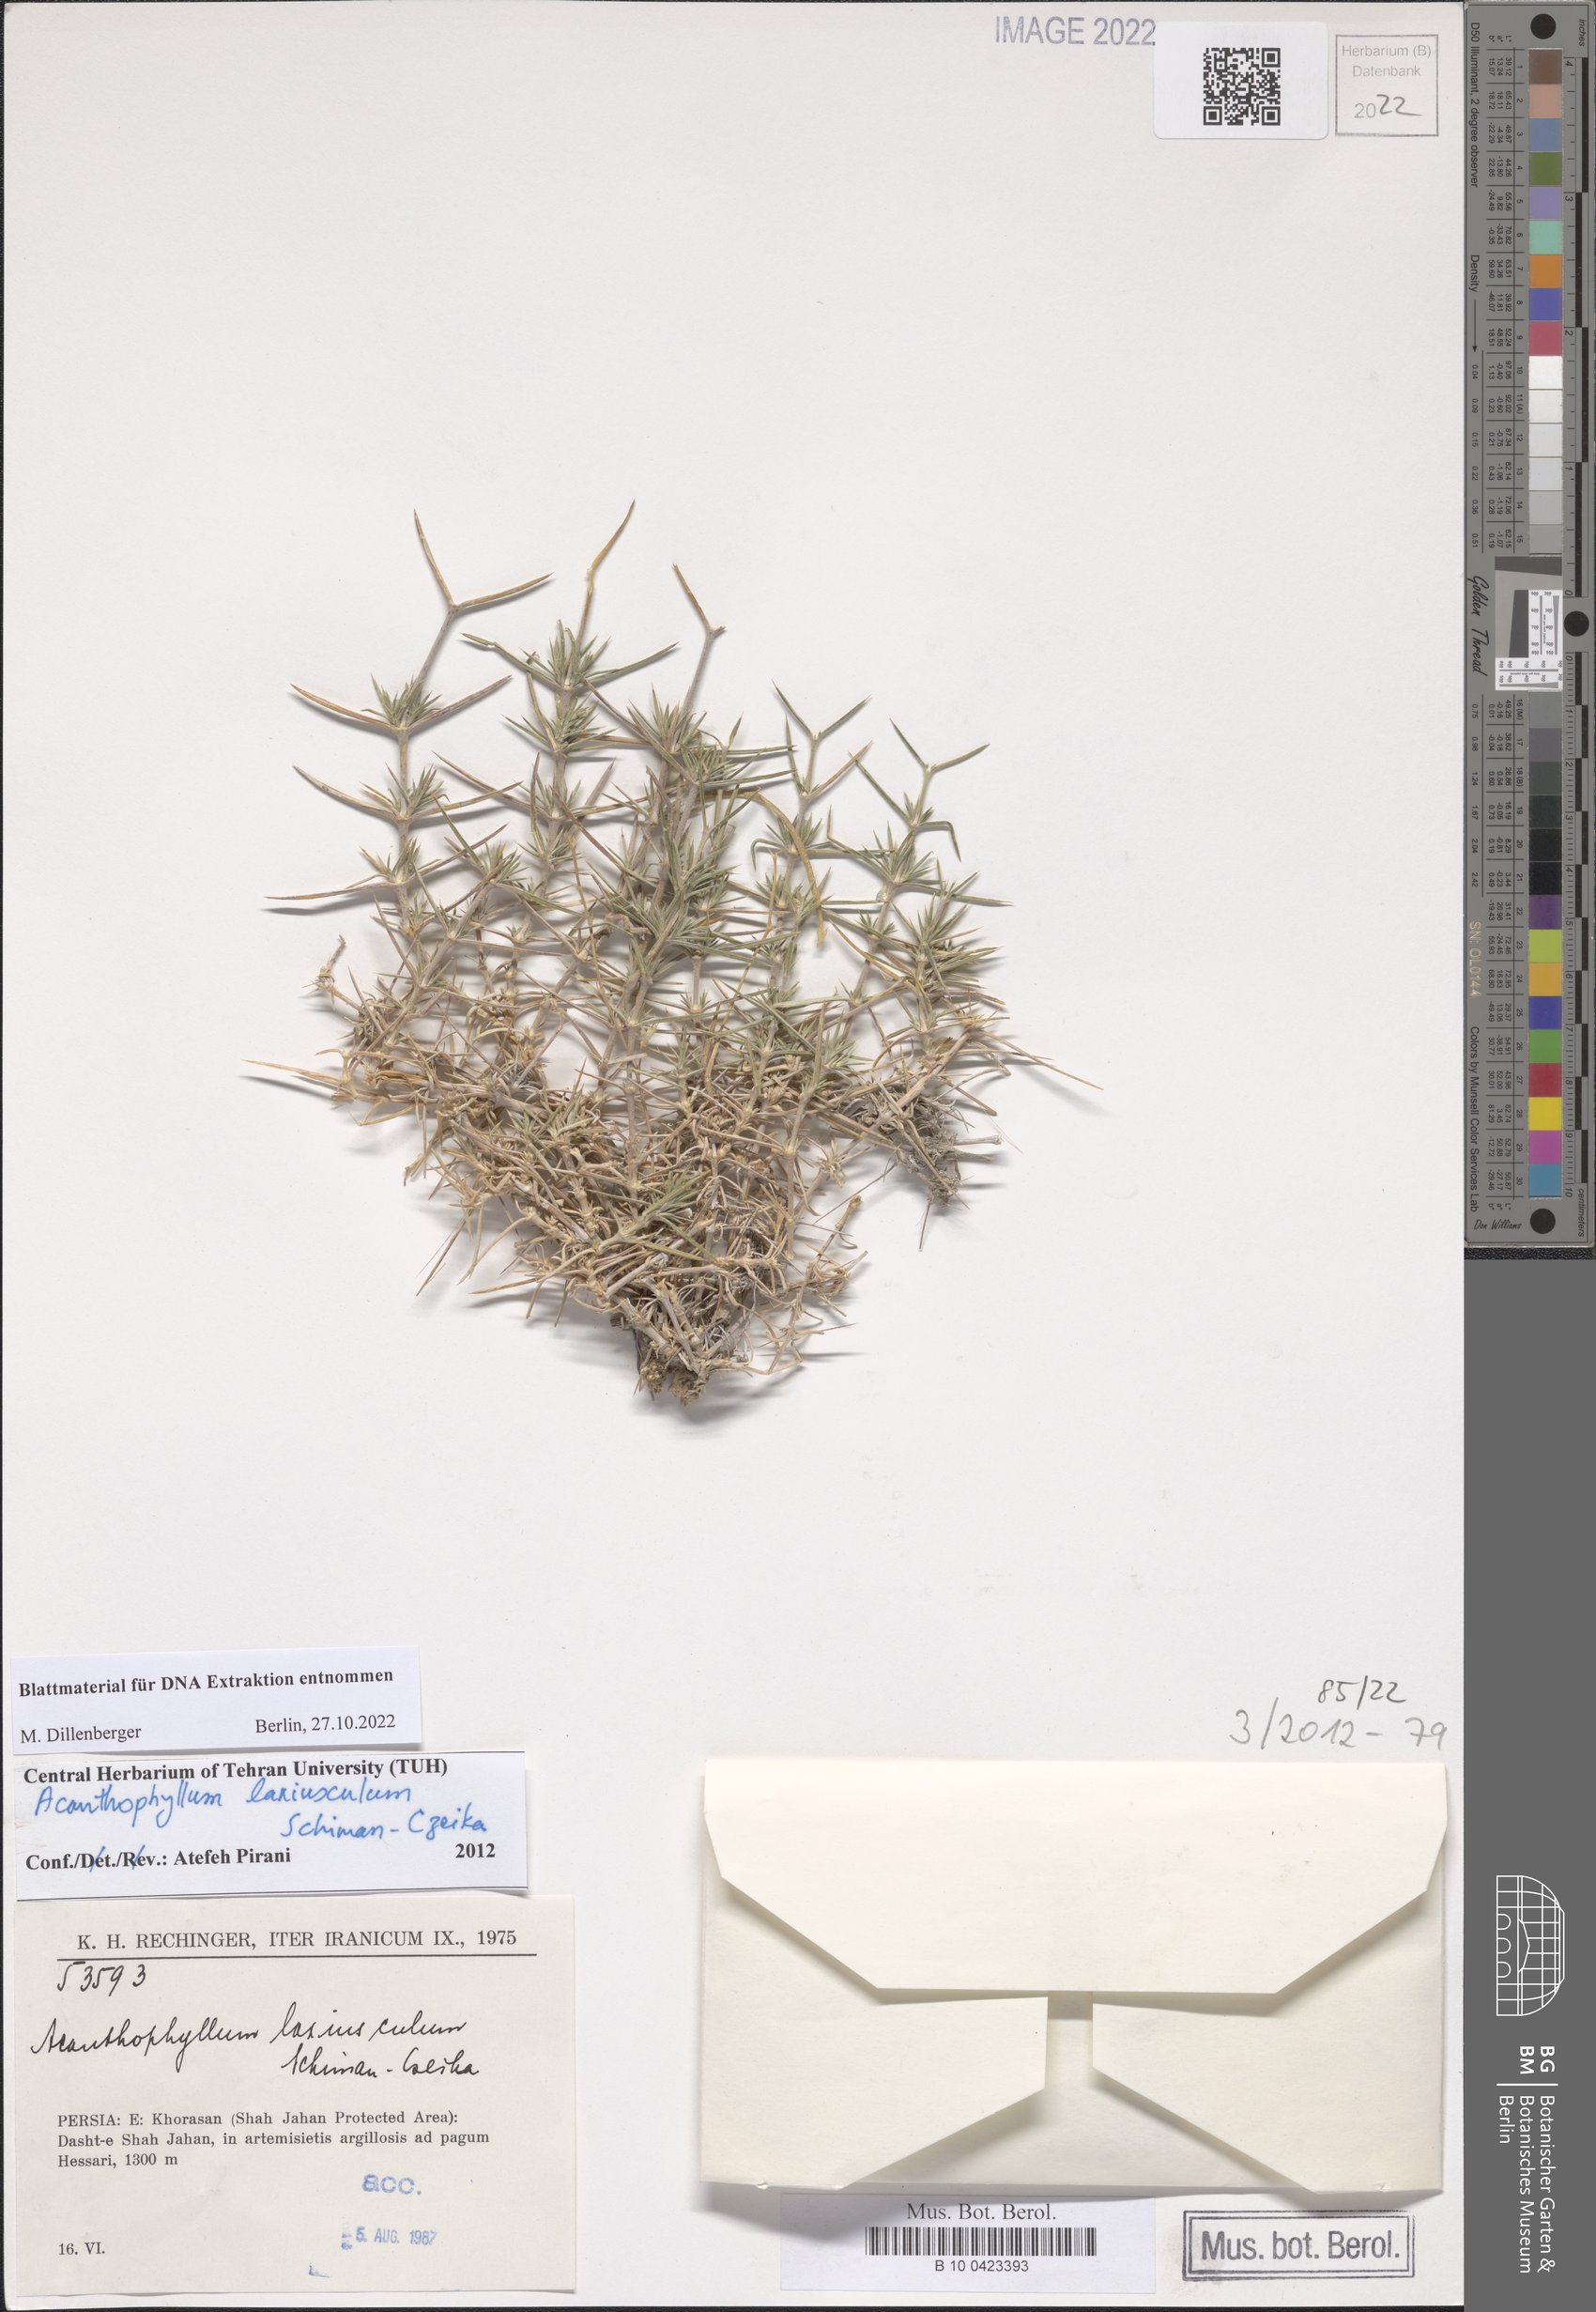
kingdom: Plantae
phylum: Tracheophyta
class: Magnoliopsida
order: Caryophyllales
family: Caryophyllaceae
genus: Acanthophyllum
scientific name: Acanthophyllum laxiusculum
